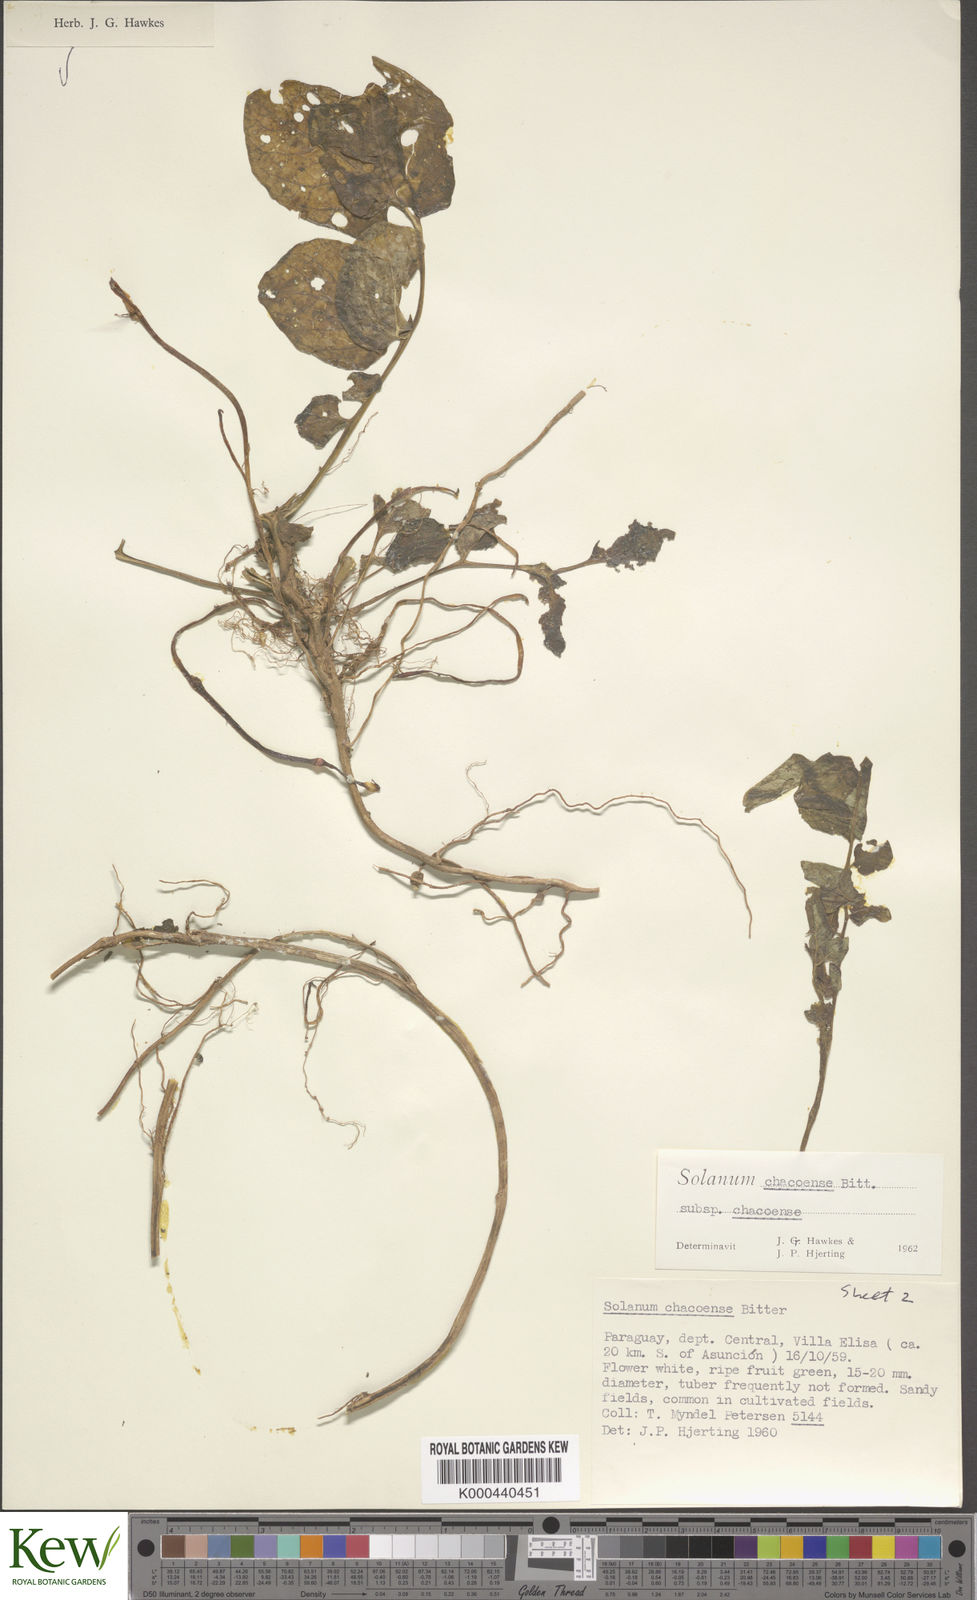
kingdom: Plantae
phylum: Tracheophyta
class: Magnoliopsida
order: Solanales
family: Solanaceae
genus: Solanum
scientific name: Solanum chacoense
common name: Chaco potato
